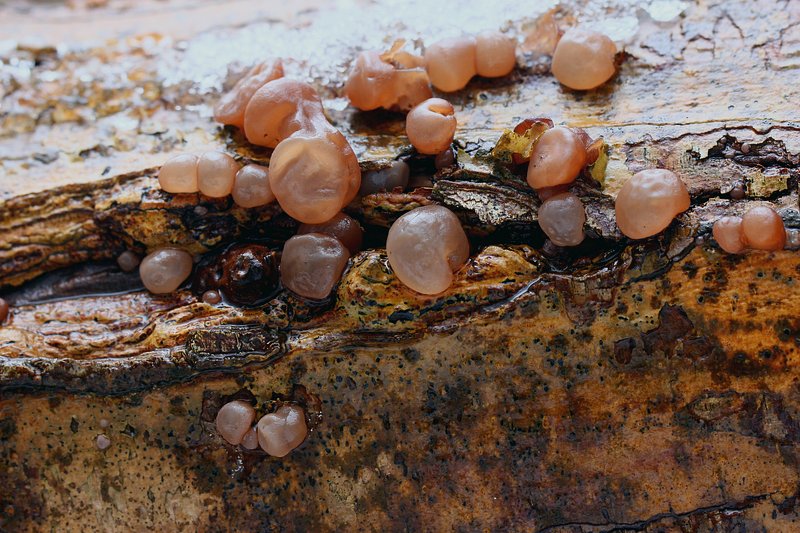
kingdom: Fungi
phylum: Basidiomycota
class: Agaricomycetes
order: Auriculariales
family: Auriculariaceae
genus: Auricularia
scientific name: Auricularia auricula-judae
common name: almindelig judasøre
